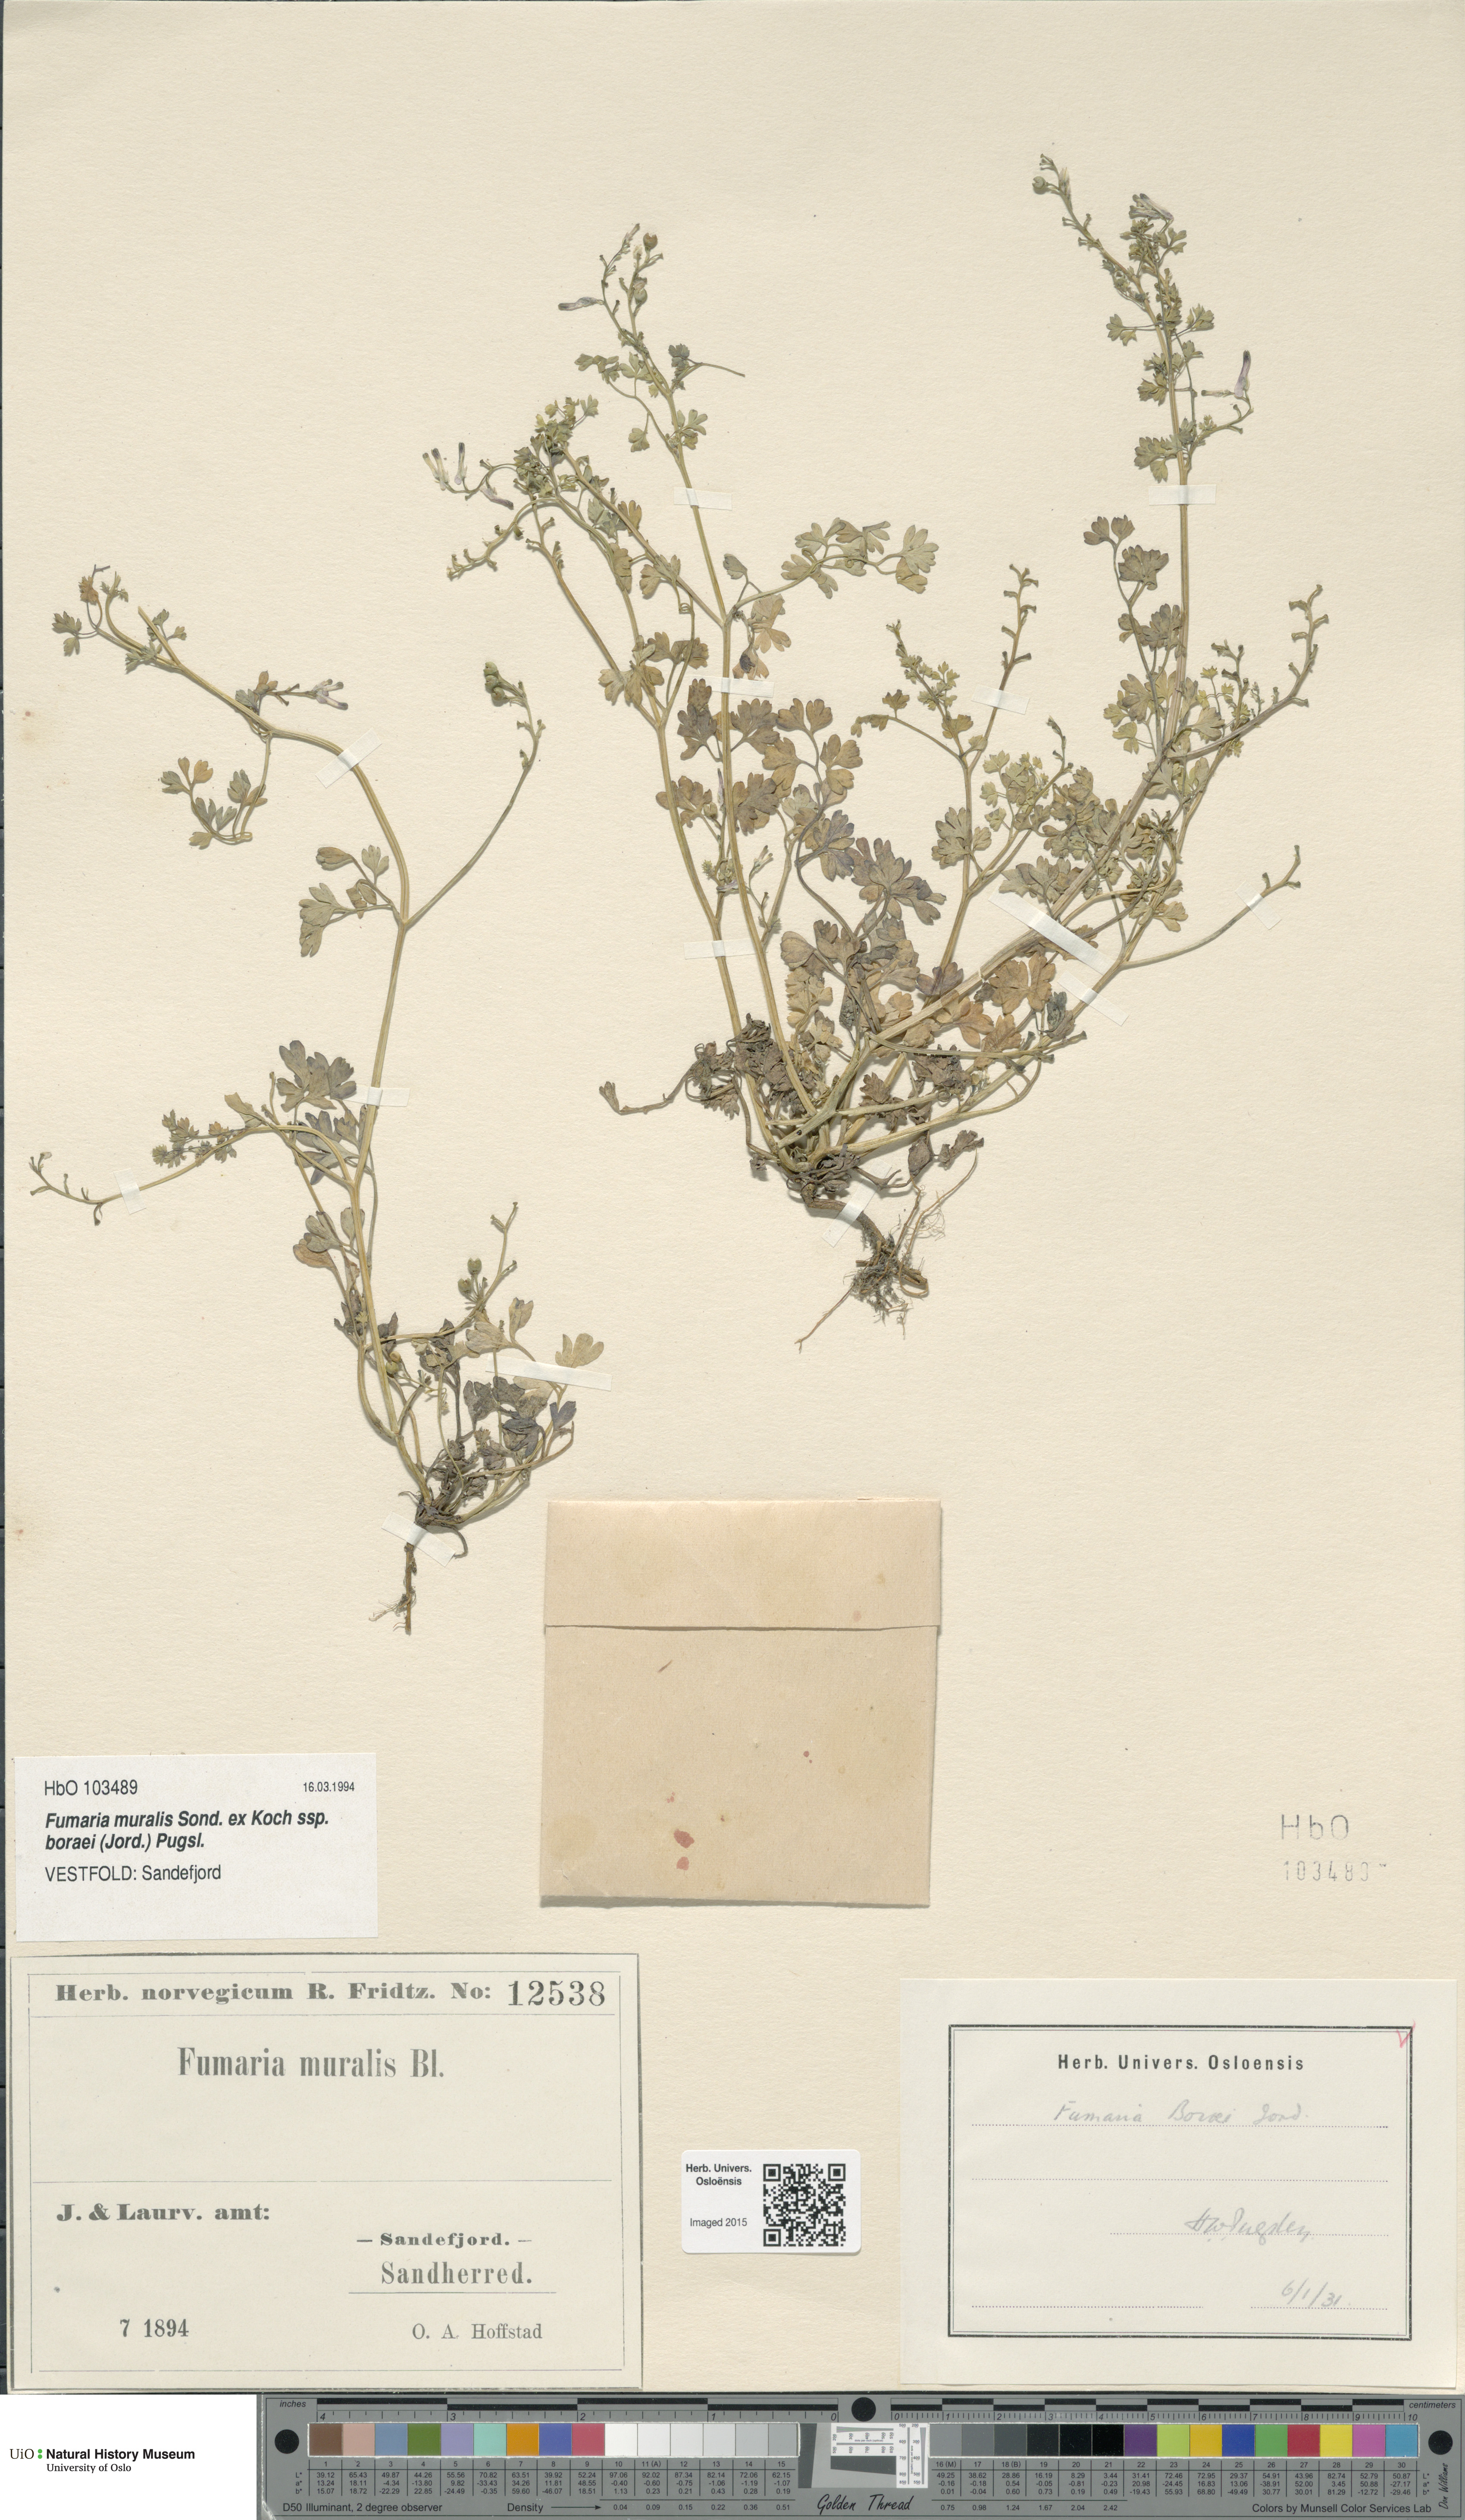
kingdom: Plantae
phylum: Tracheophyta
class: Magnoliopsida
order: Ranunculales
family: Papaveraceae
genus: Fumaria
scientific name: Fumaria muralis
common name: Common ramping-fumitory
